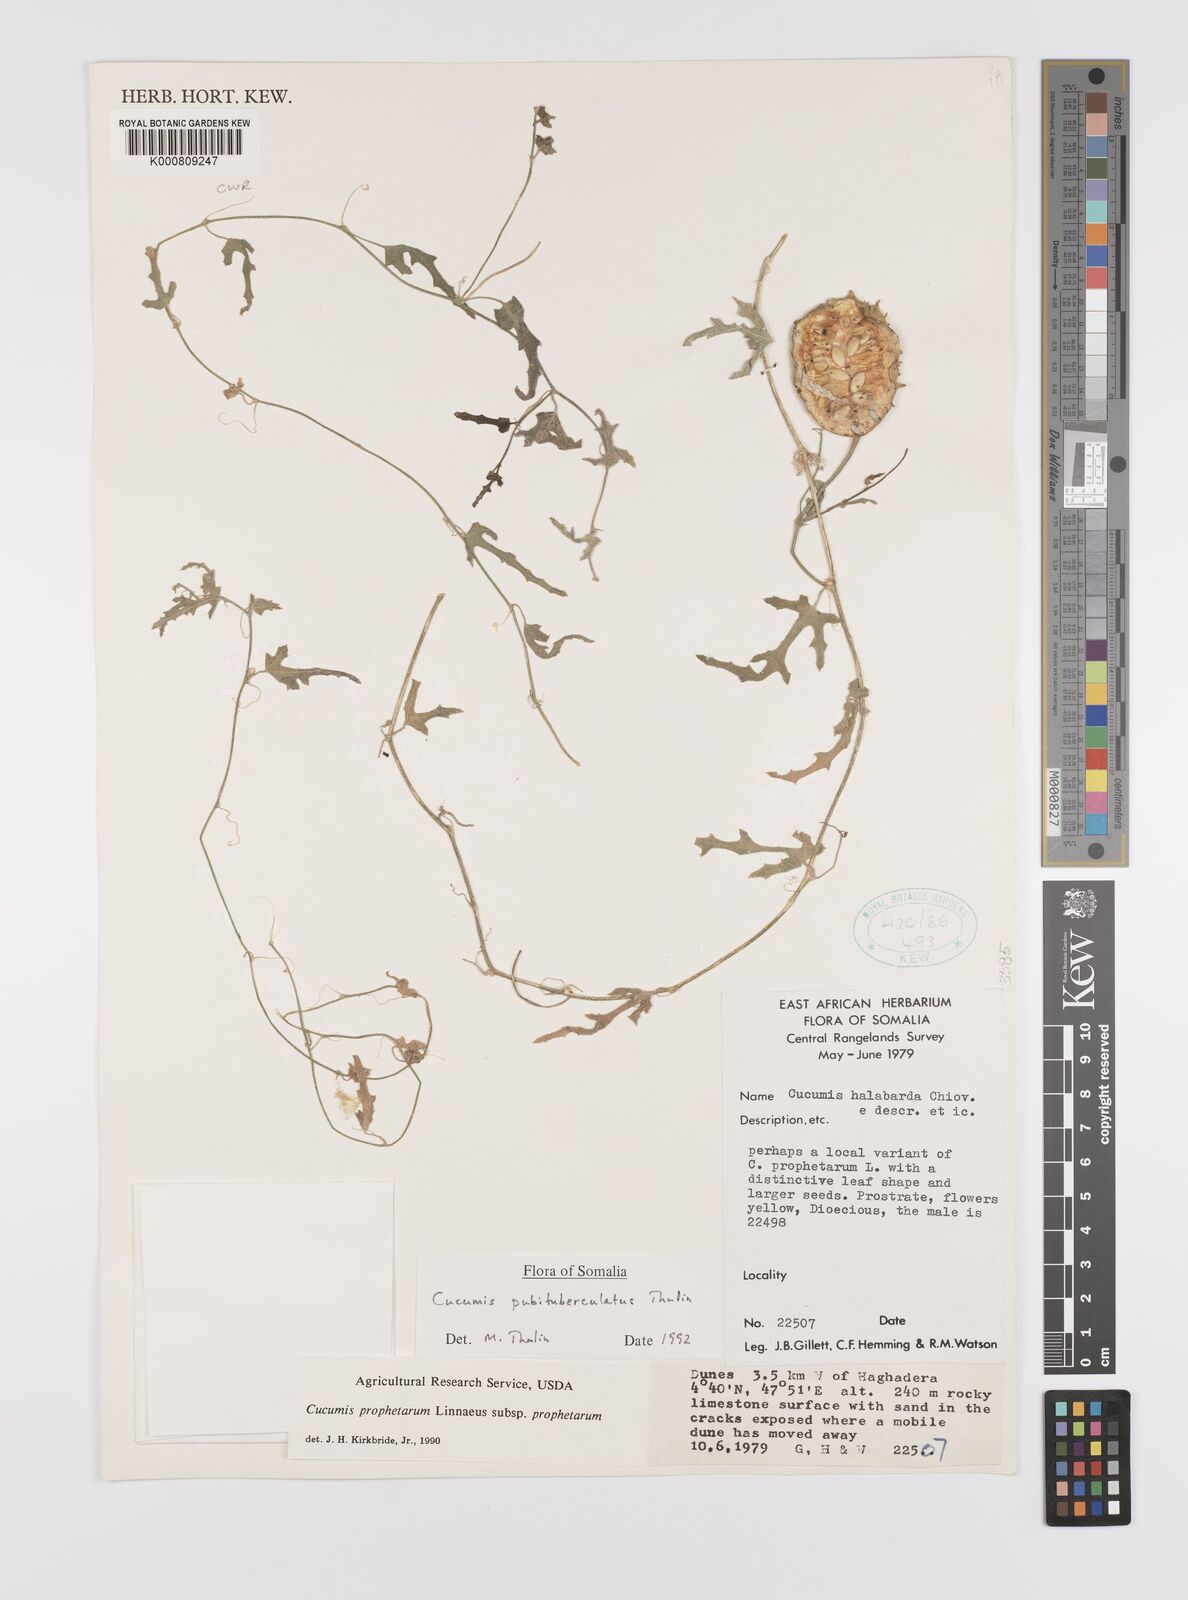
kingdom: Plantae
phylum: Tracheophyta
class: Magnoliopsida
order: Cucurbitales
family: Cucurbitaceae
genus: Cucumis
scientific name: Cucumis prophetarum
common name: Wild cucumber
